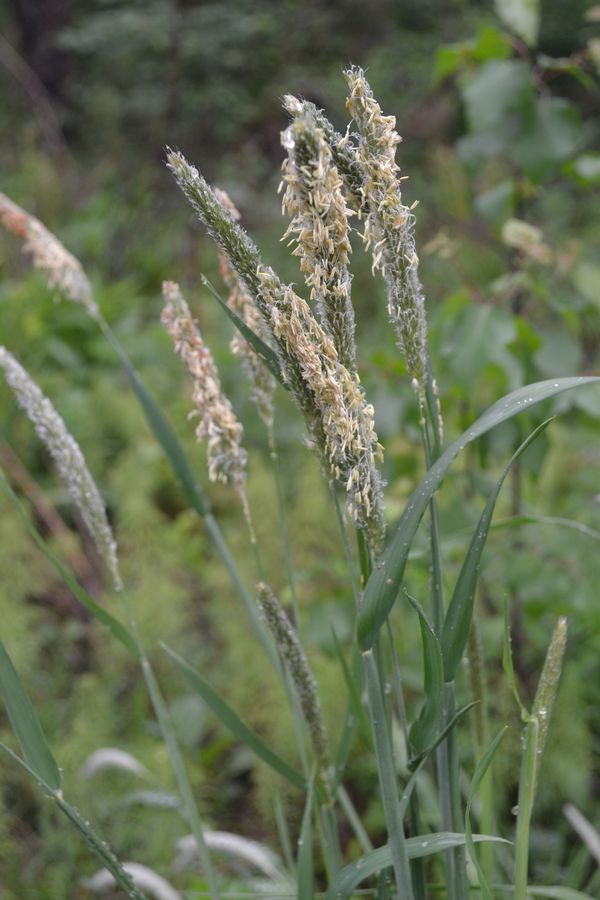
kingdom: Plantae
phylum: Tracheophyta
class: Liliopsida
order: Poales
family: Poaceae
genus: Alopecurus
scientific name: Alopecurus pratensis
